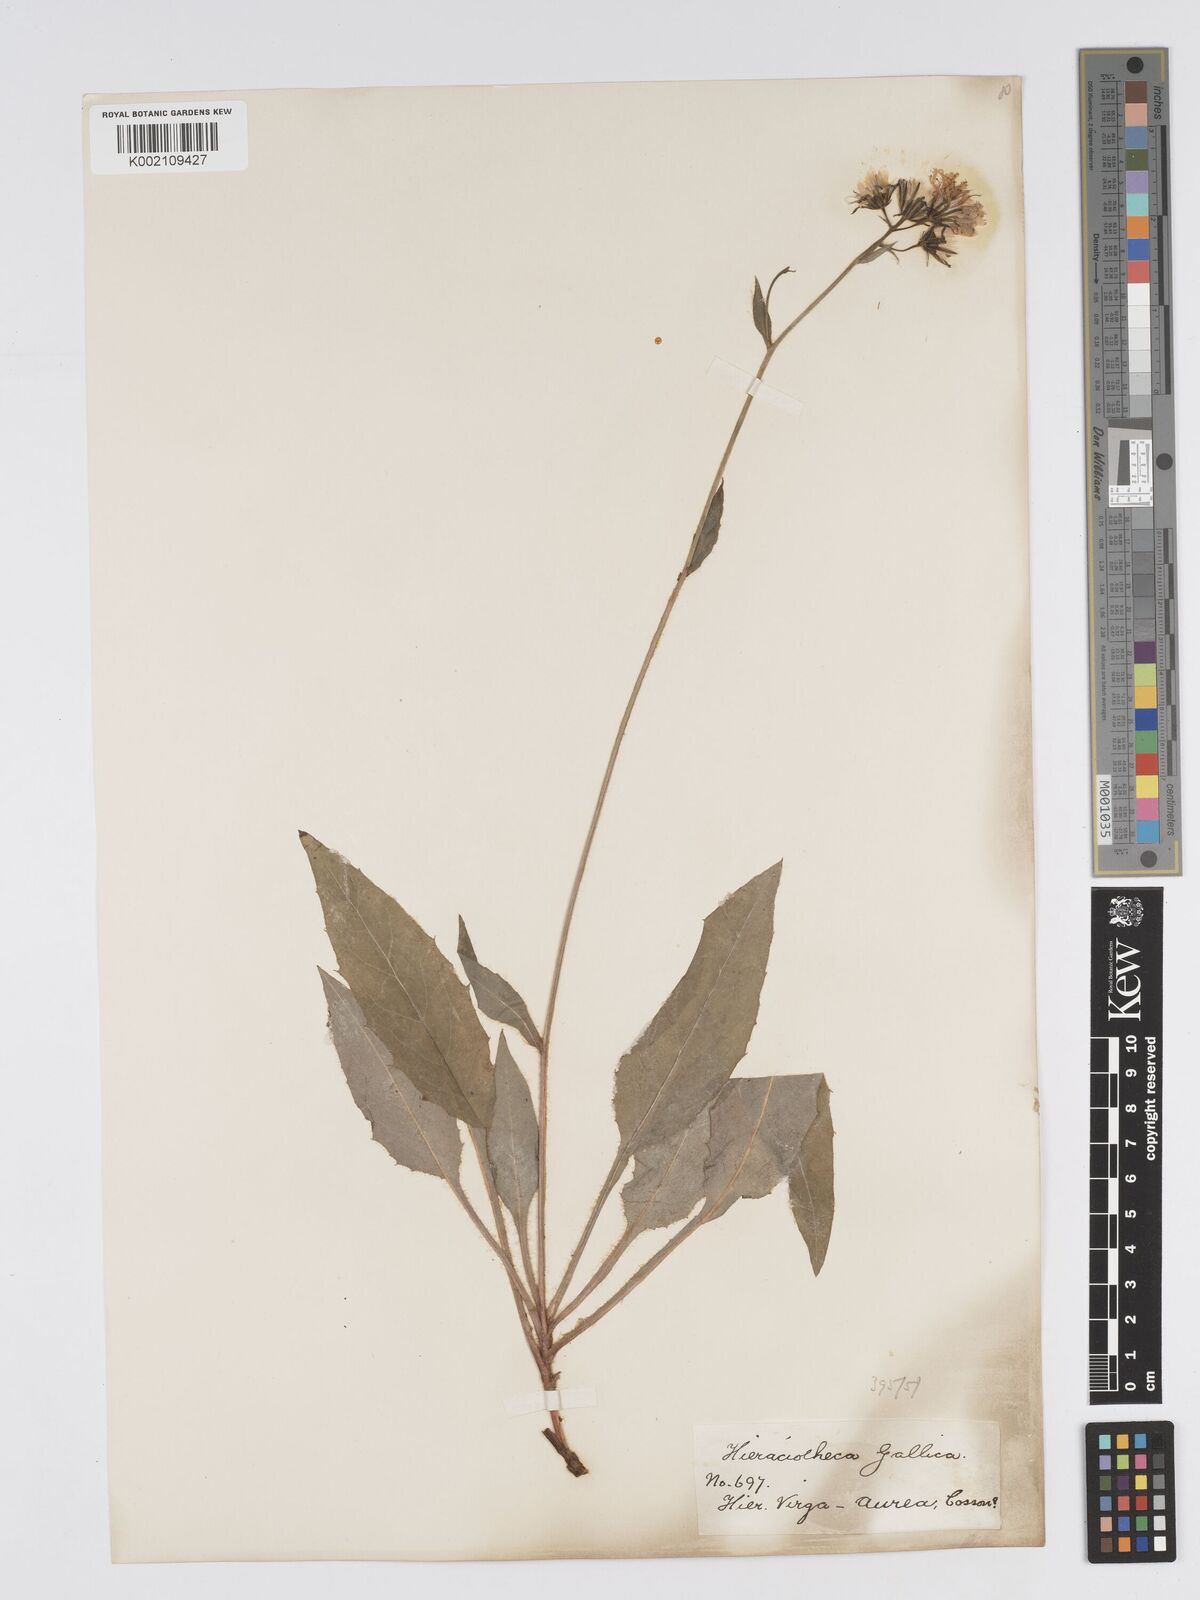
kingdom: Plantae
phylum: Tracheophyta
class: Magnoliopsida
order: Asterales
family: Asteraceae
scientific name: Asteraceae
